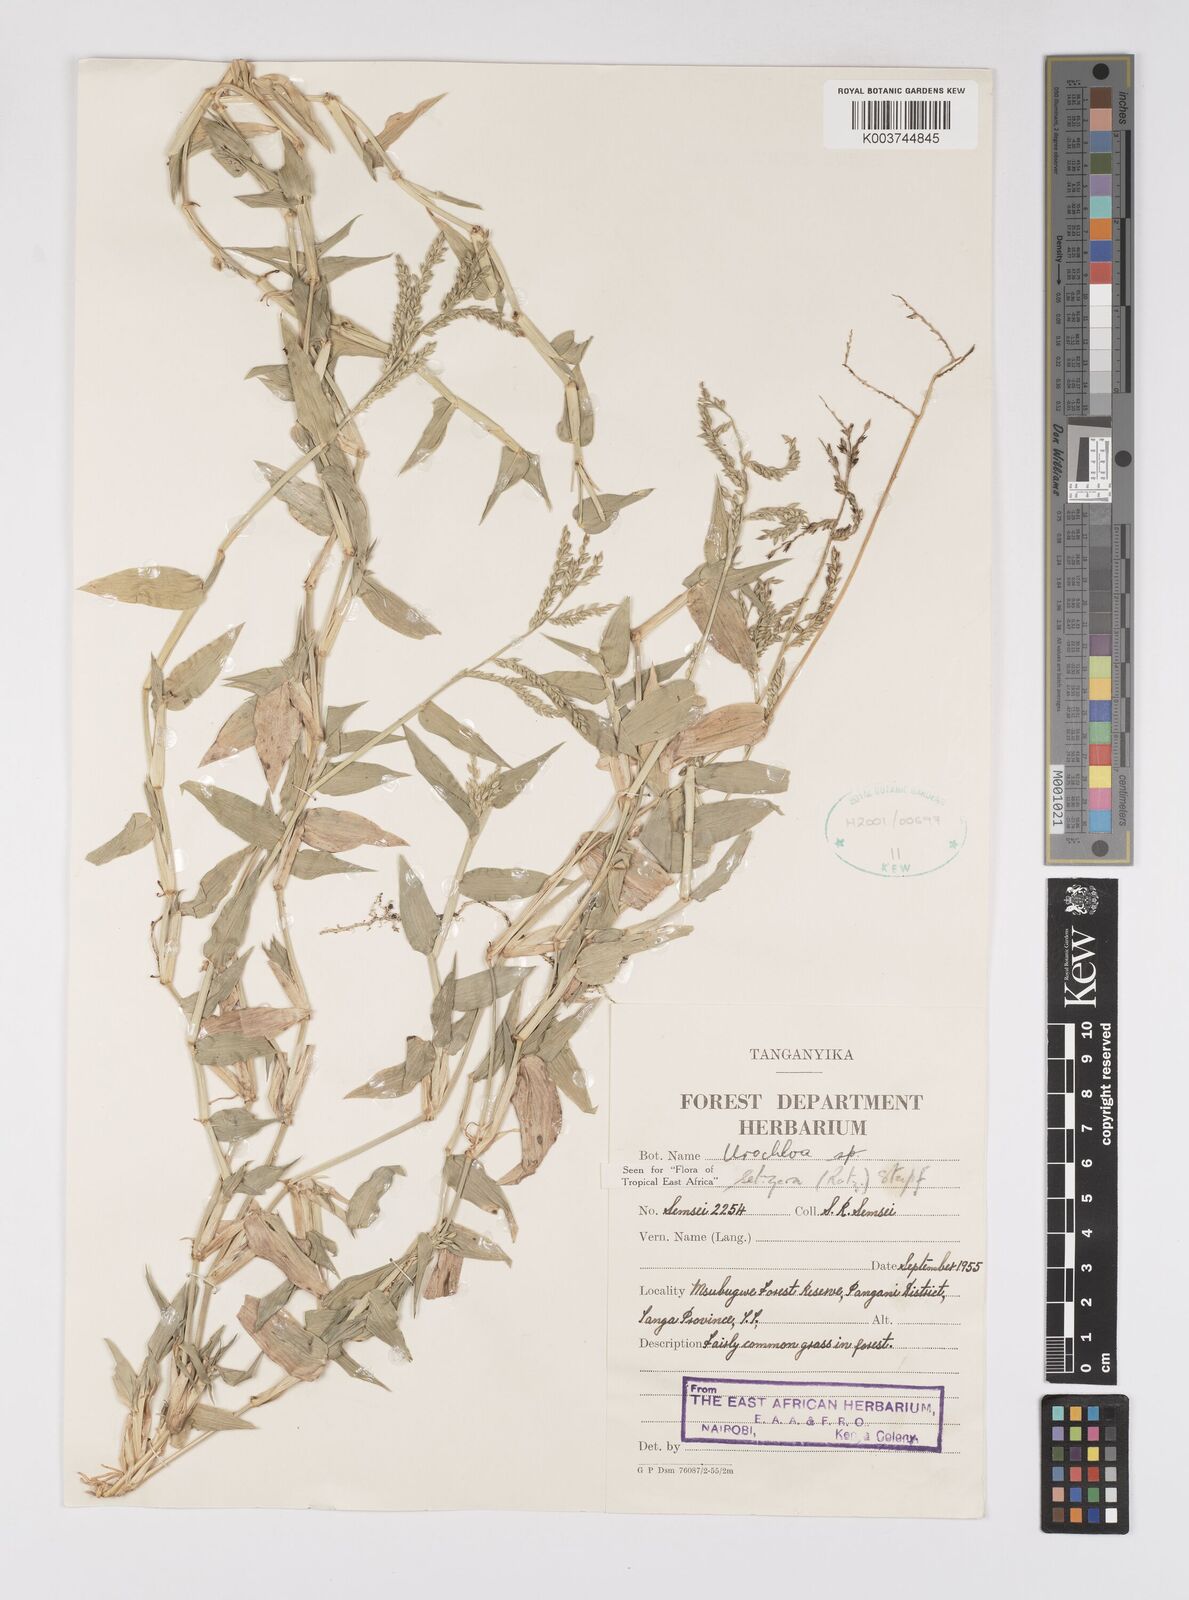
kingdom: Plantae
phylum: Tracheophyta
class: Liliopsida
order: Poales
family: Poaceae
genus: Urochloa
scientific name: Urochloa trichopodioides
